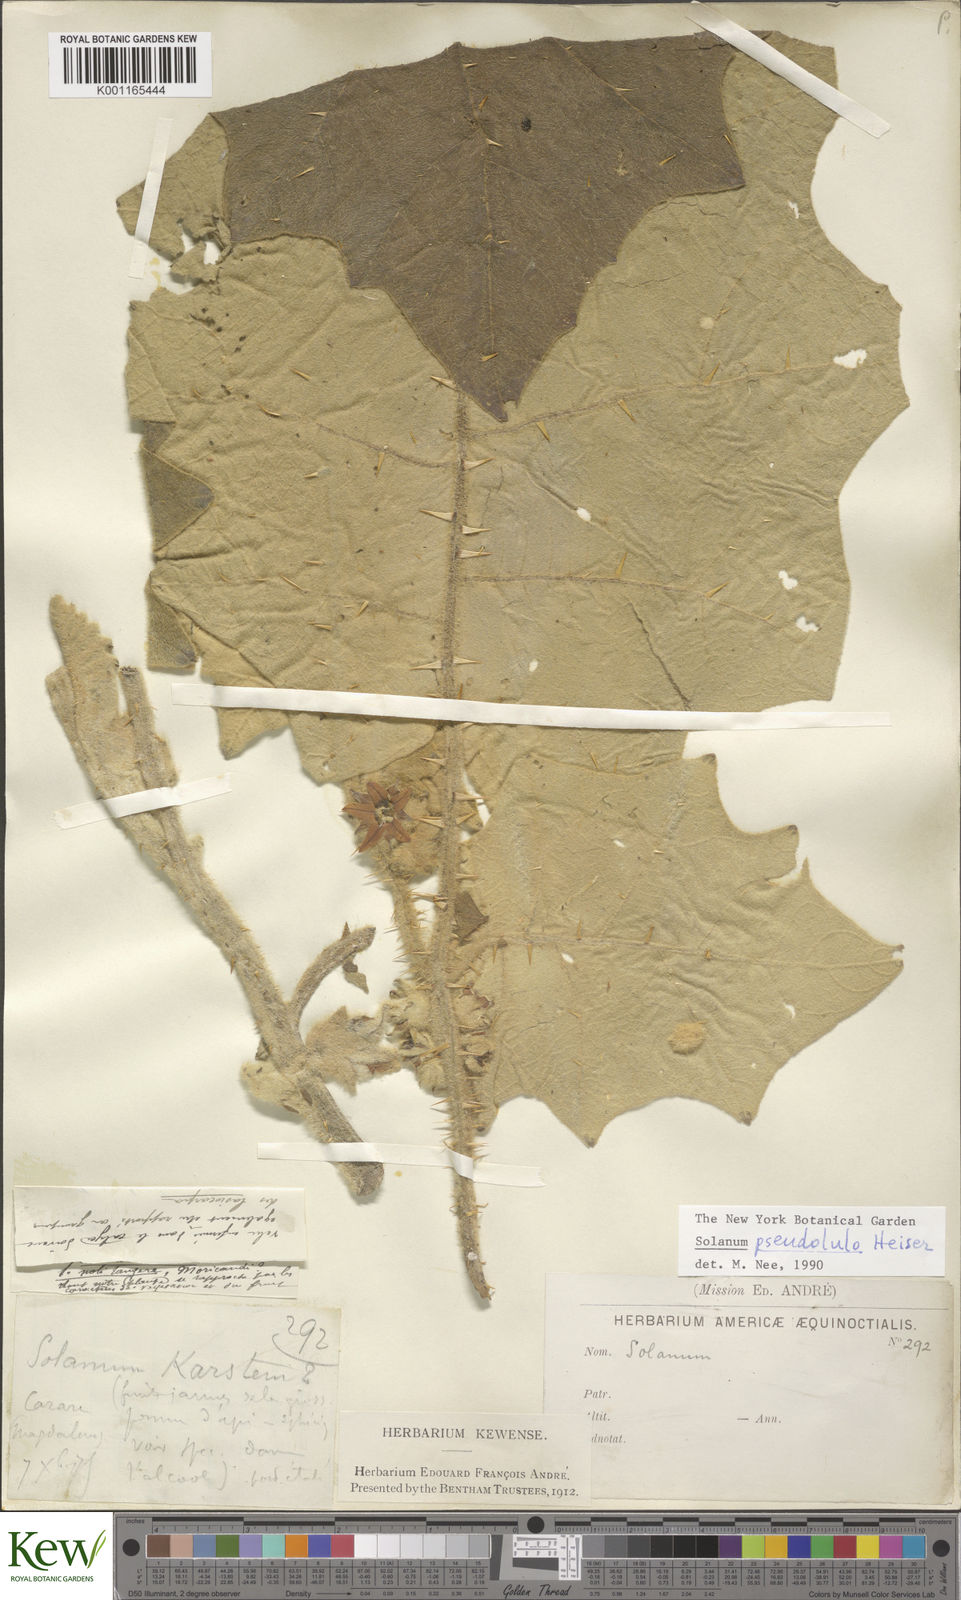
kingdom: Plantae
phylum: Tracheophyta
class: Magnoliopsida
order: Solanales
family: Solanaceae
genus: Solanum
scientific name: Solanum pseudolulo
